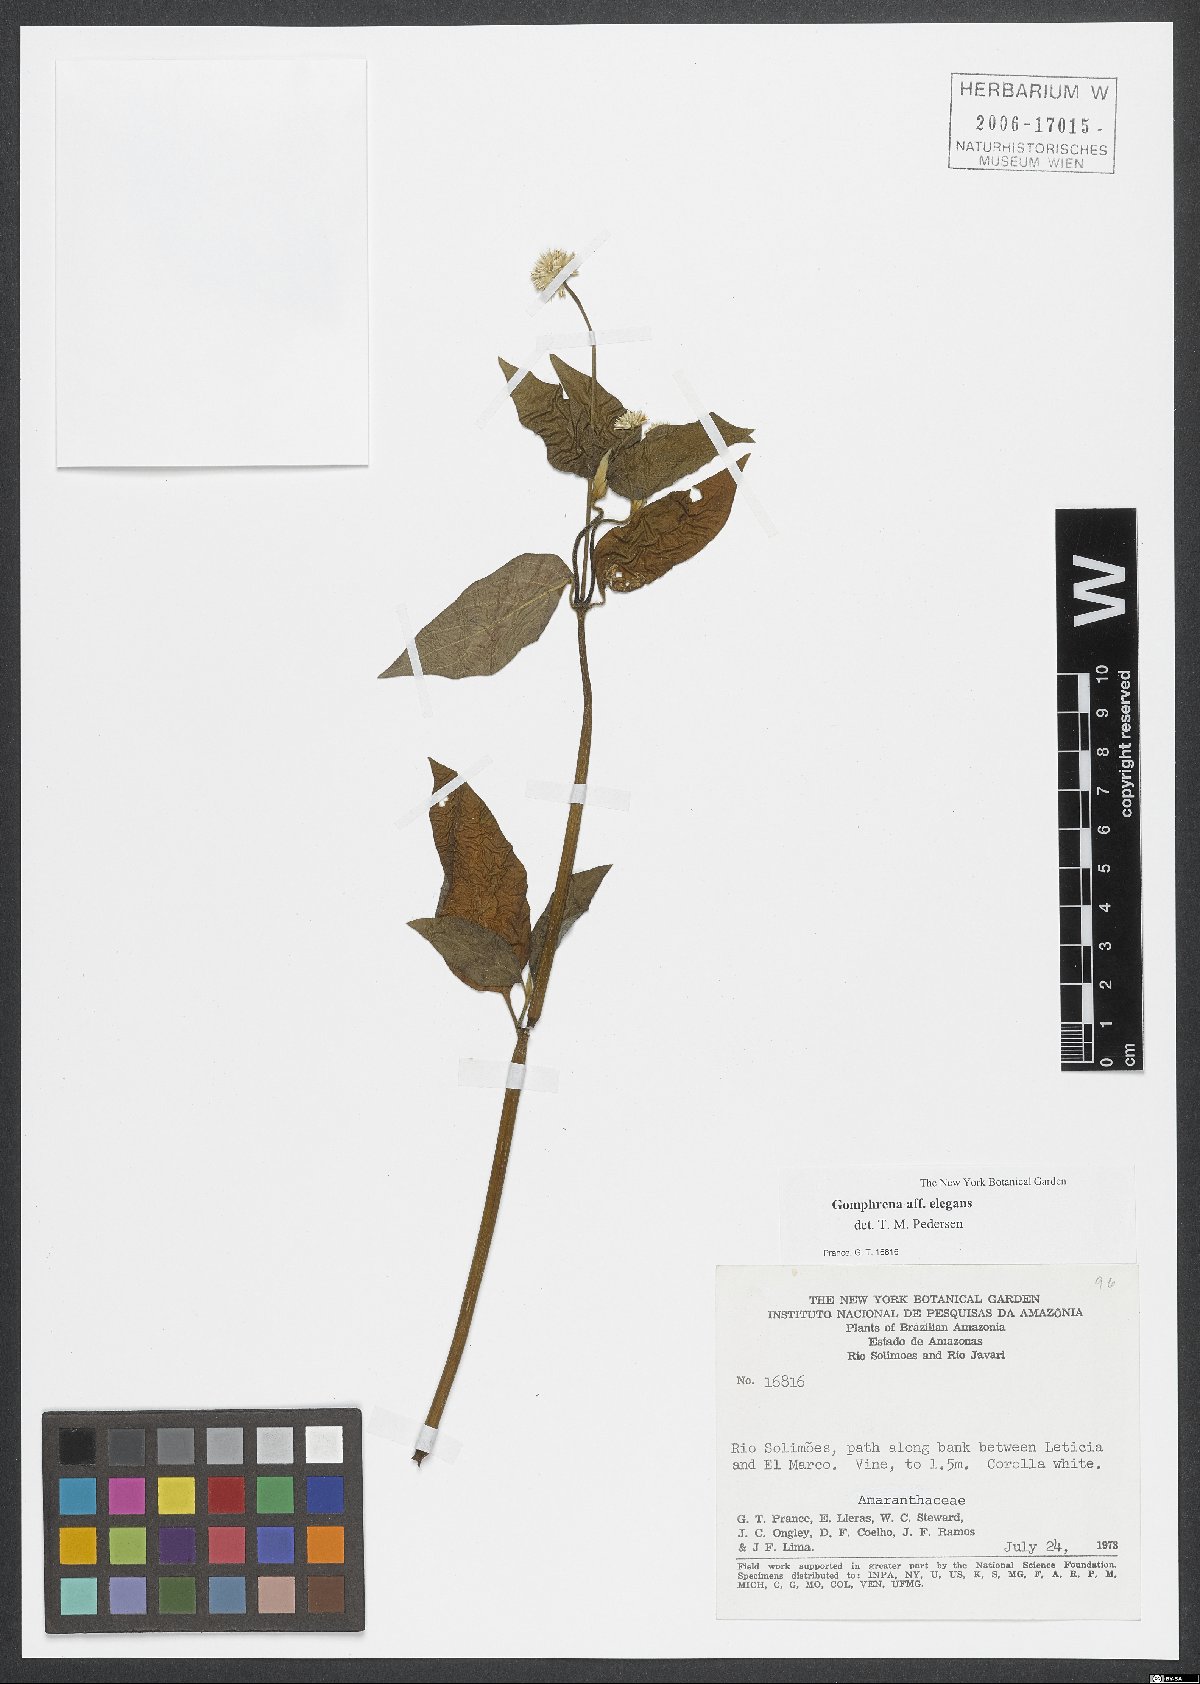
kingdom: Plantae
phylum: Tracheophyta
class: Magnoliopsida
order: Caryophyllales
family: Amaranthaceae
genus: Gomphrena
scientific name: Gomphrena elegans
